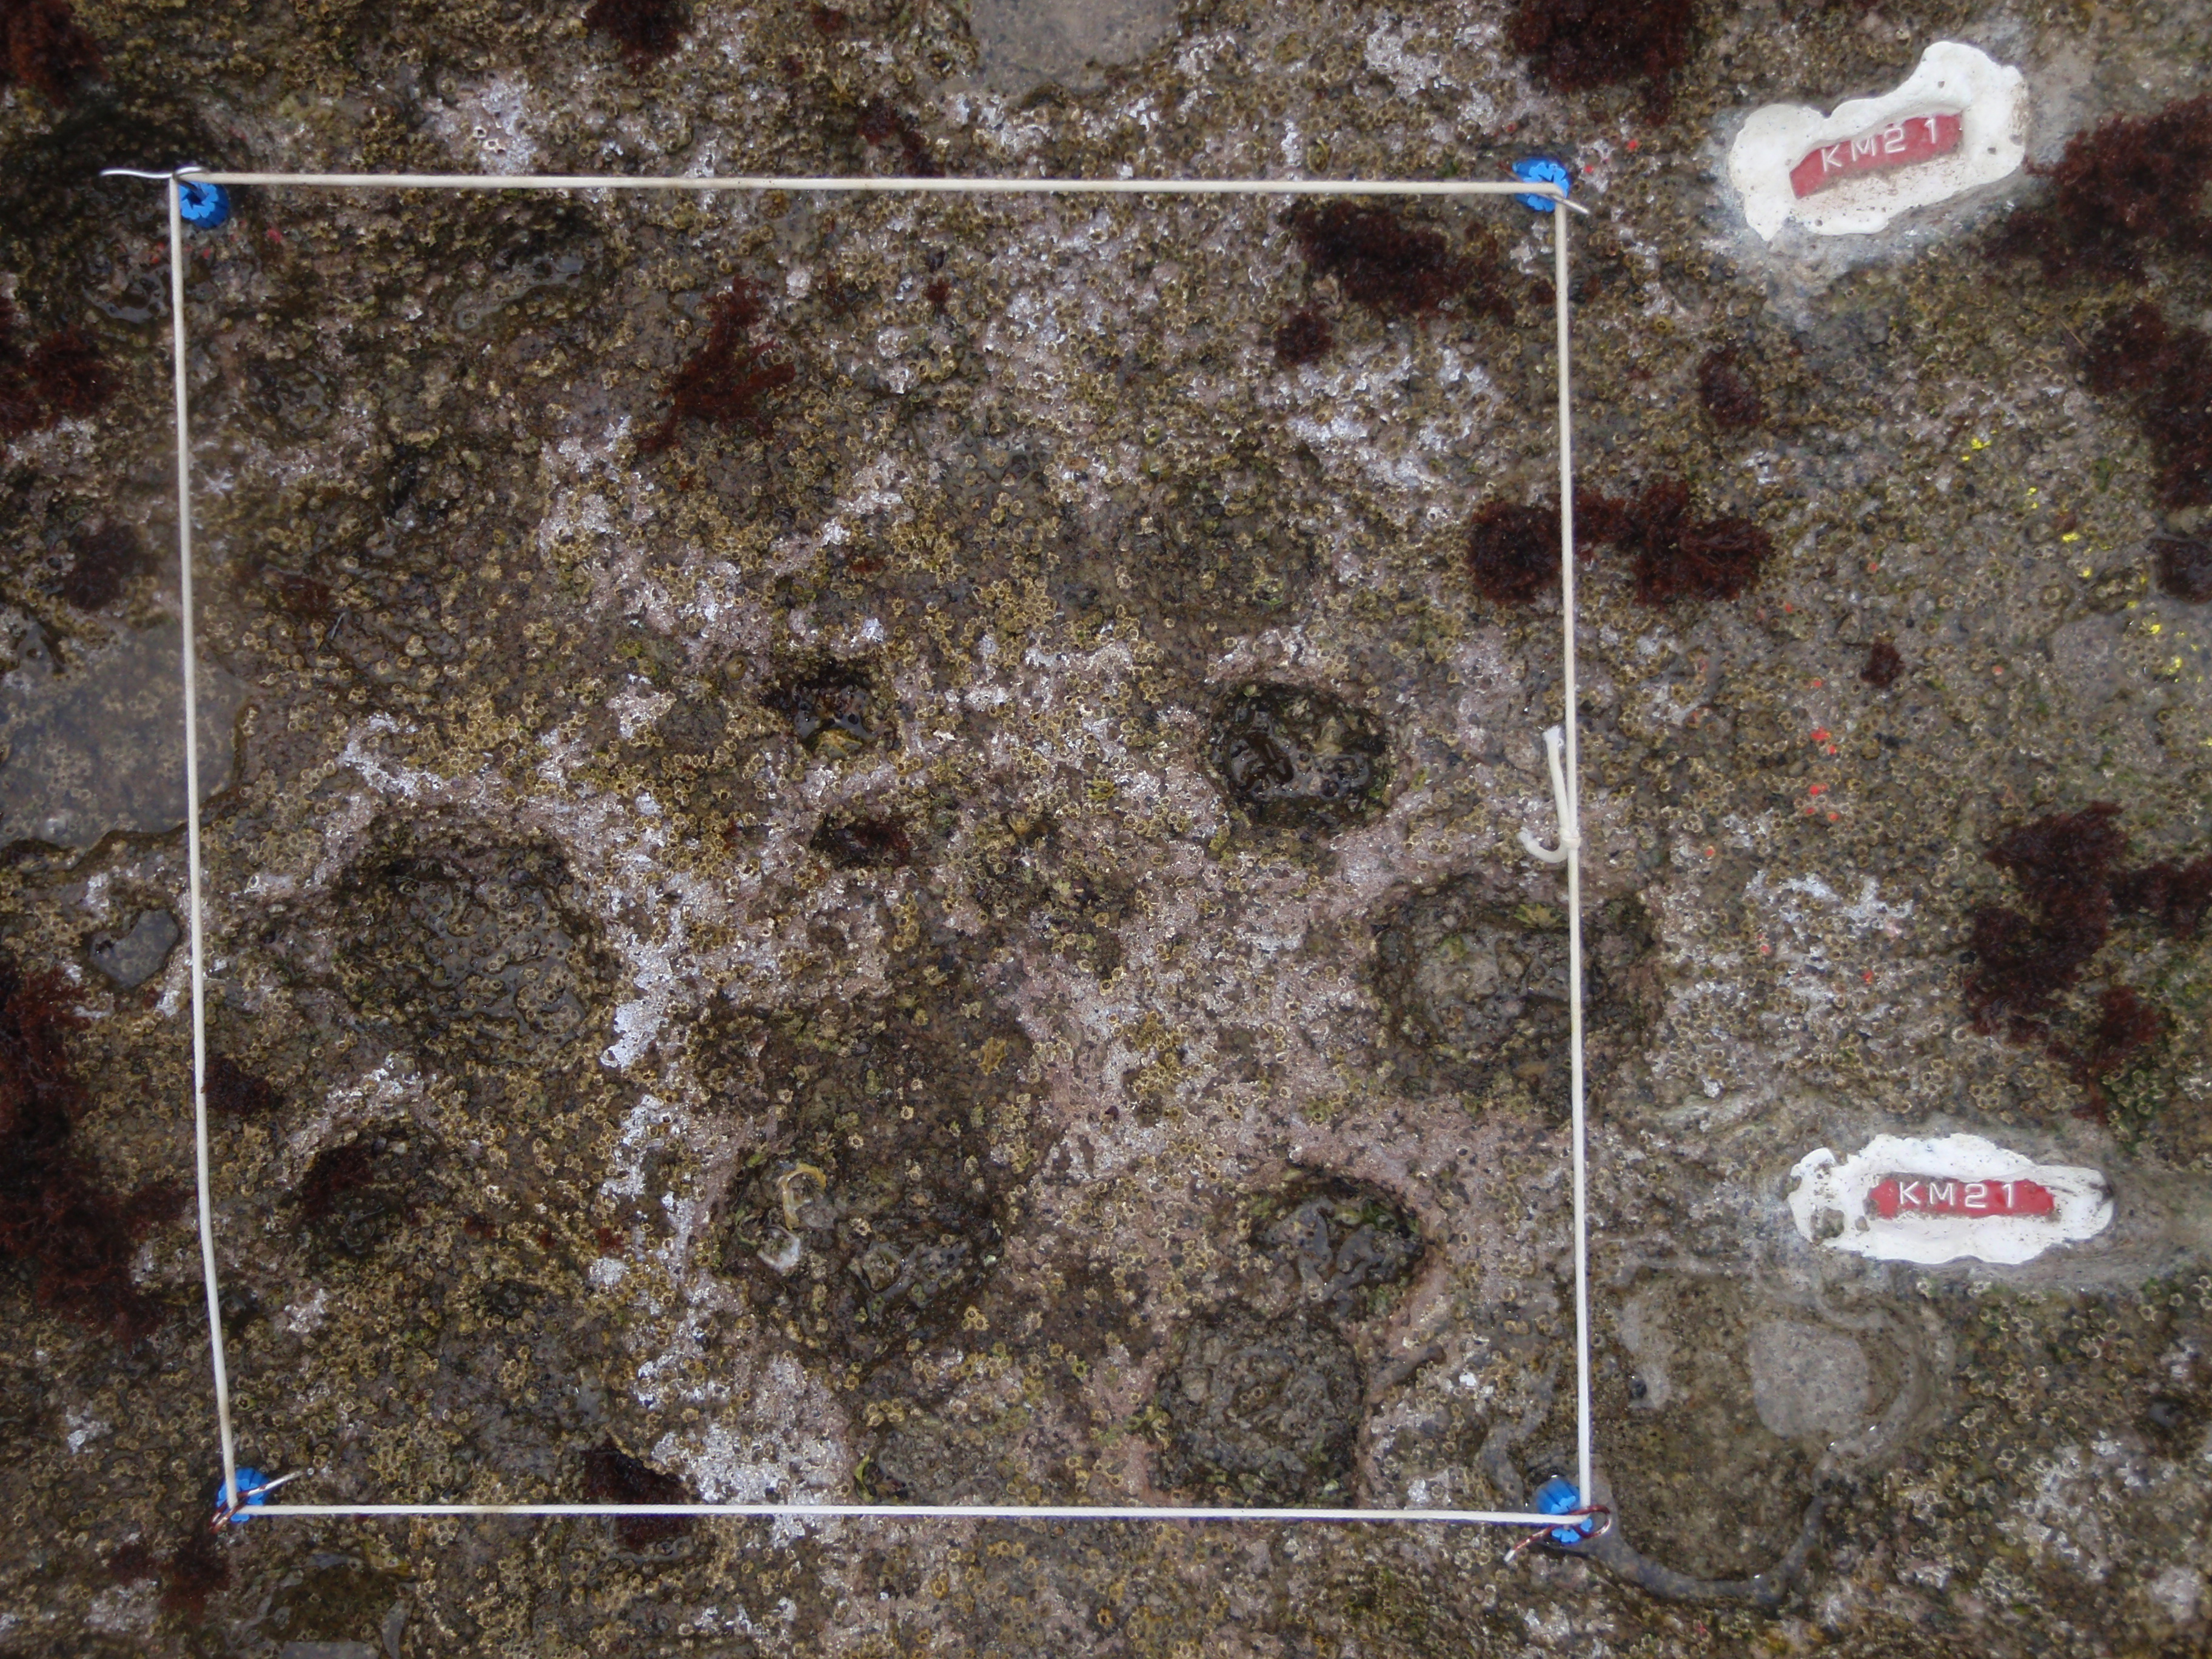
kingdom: Animalia
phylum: Arthropoda
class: Maxillopoda
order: Sessilia
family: Chthamalidae
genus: Chthamalus
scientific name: Chthamalus challengeri
